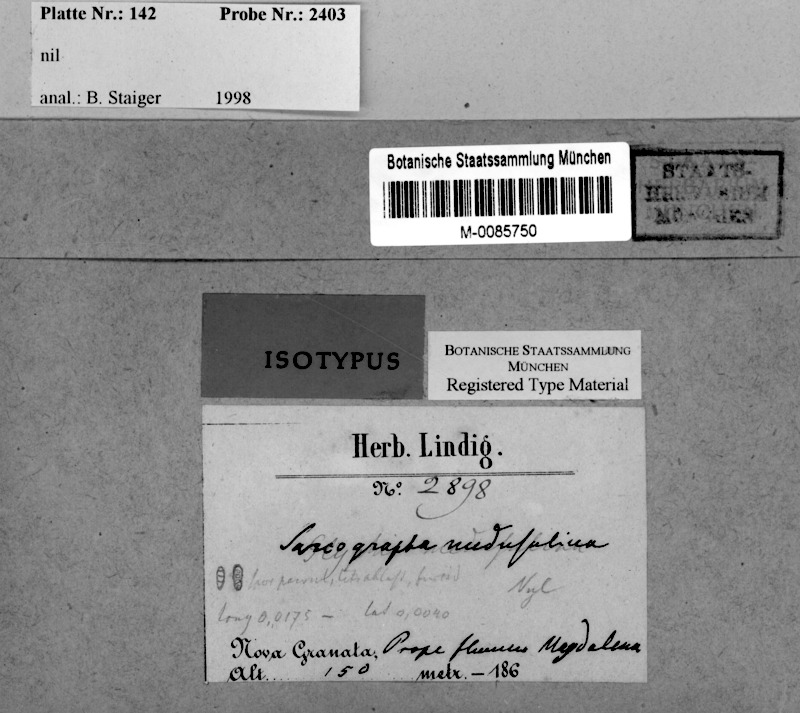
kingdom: Fungi
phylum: Ascomycota
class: Lecanoromycetes
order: Ostropales
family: Graphidaceae
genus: Sarcographa
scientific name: Sarcographa medusulina
